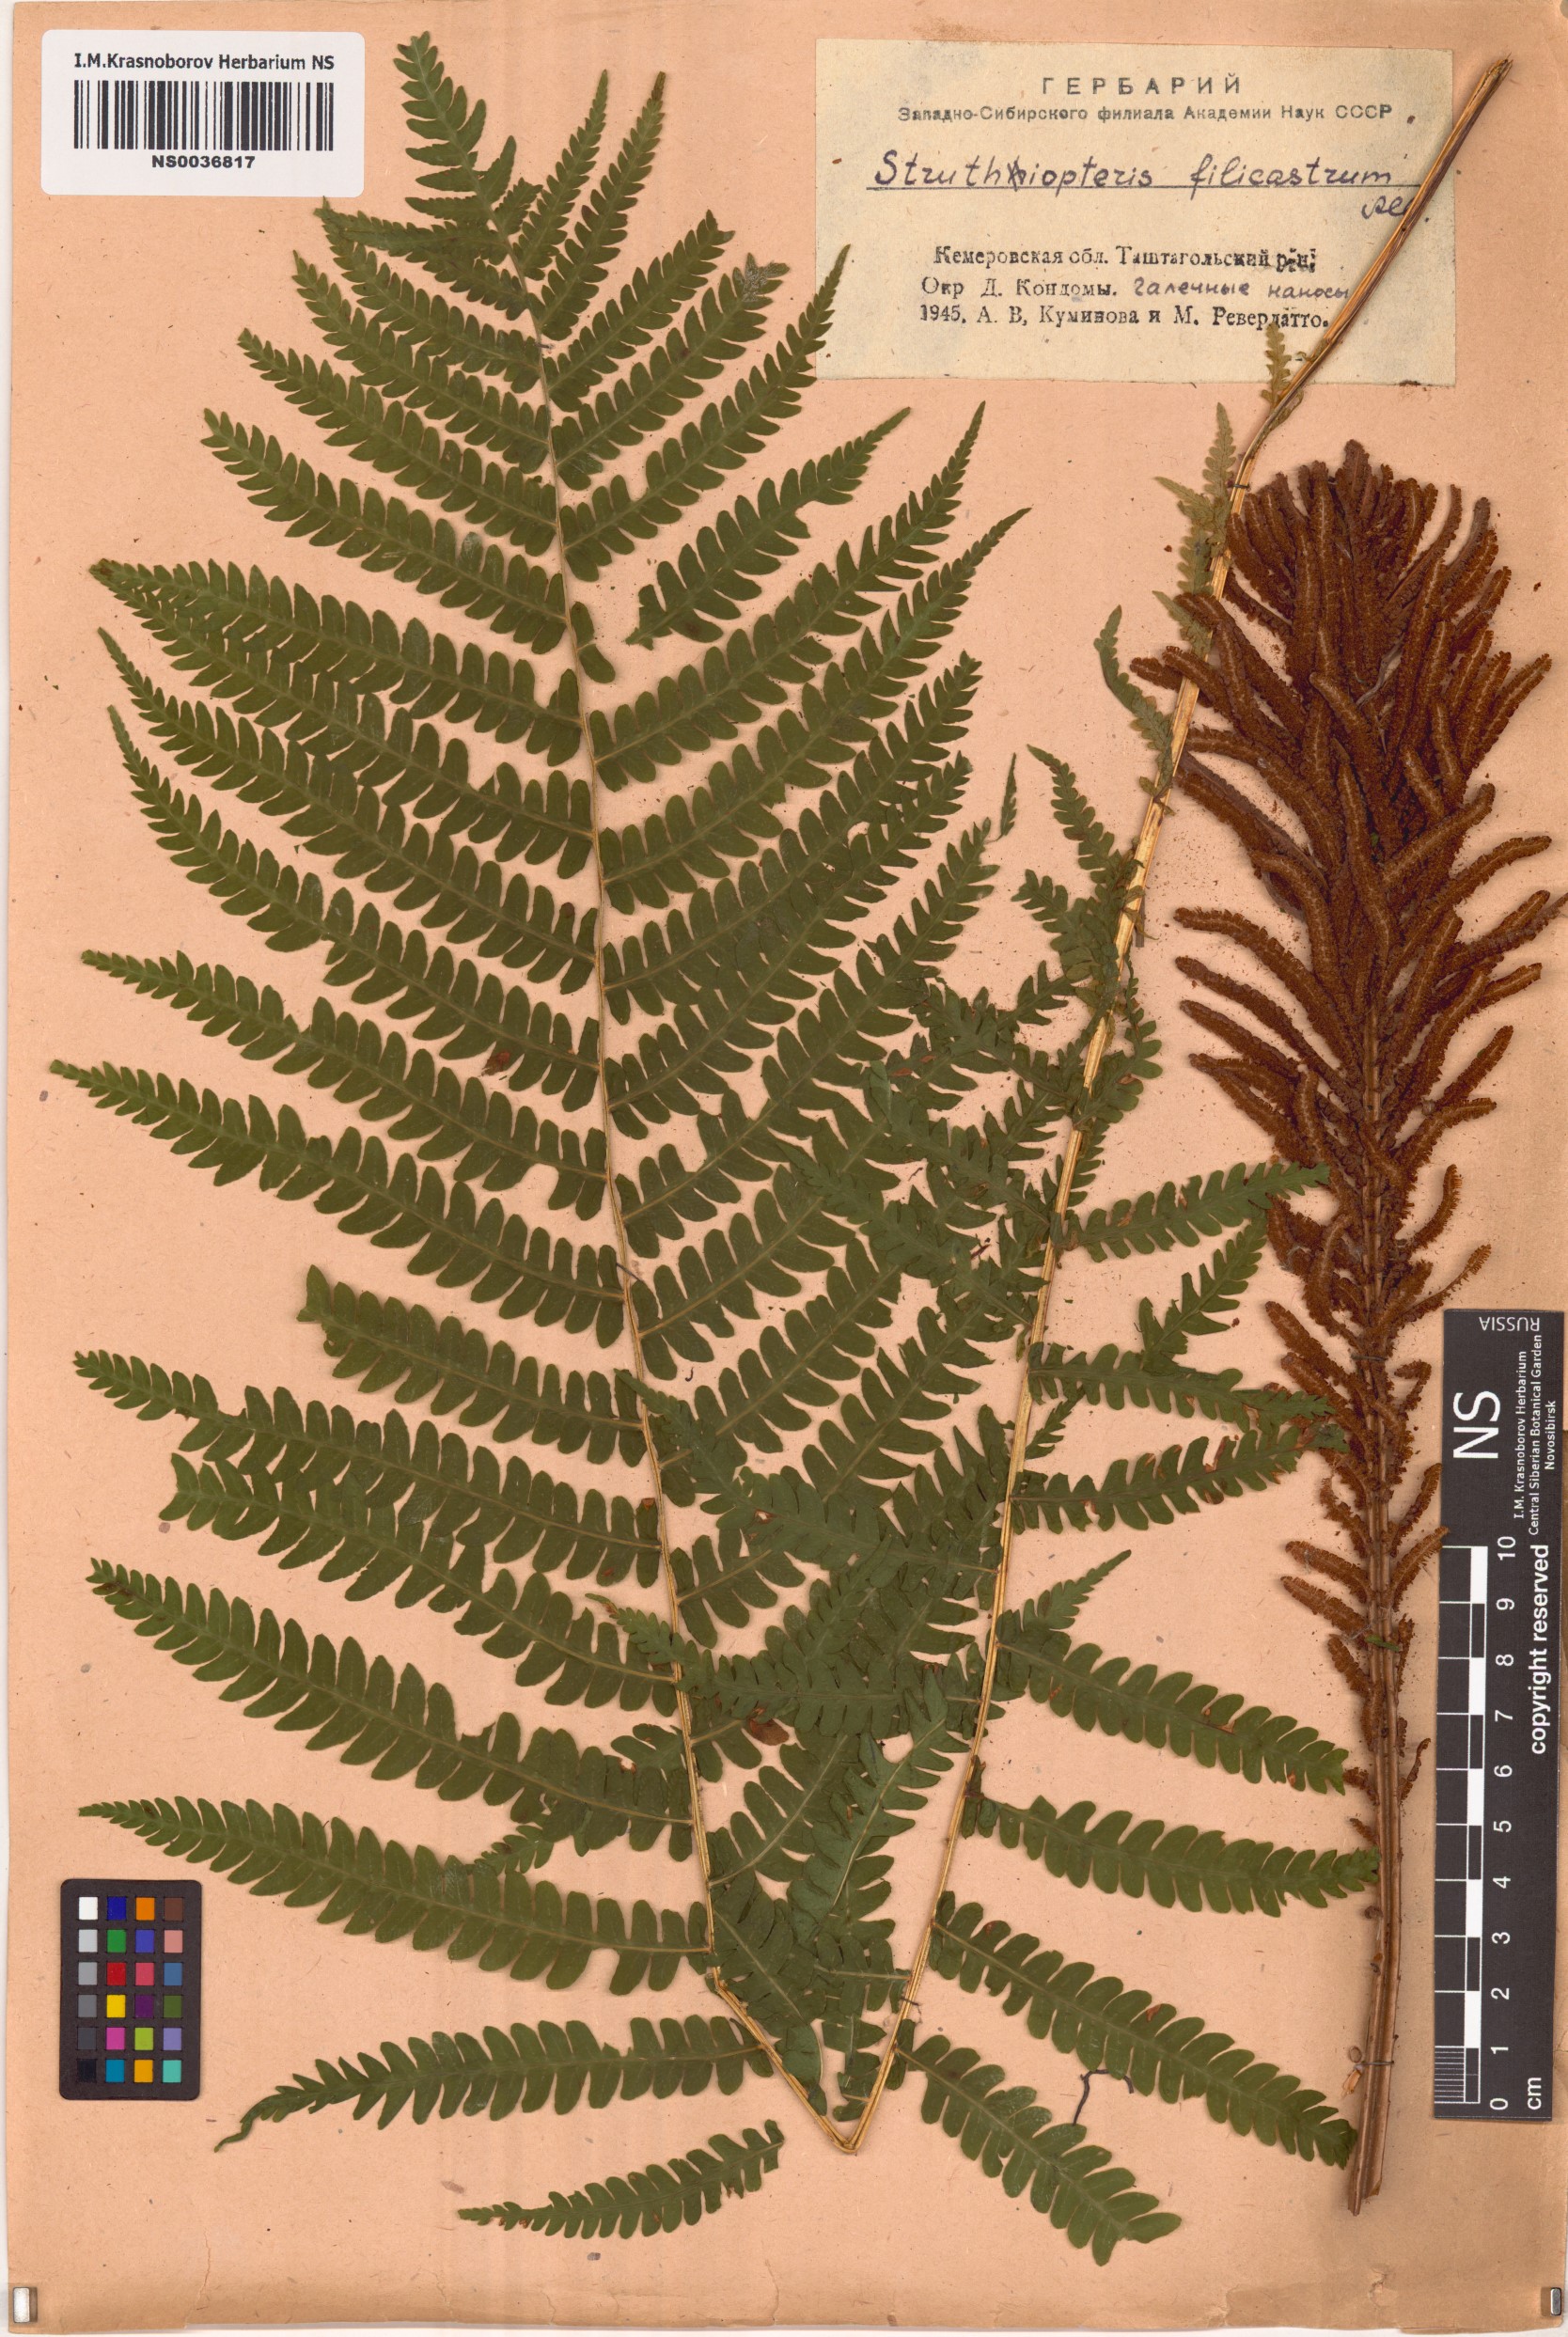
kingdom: Plantae
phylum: Tracheophyta
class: Polypodiopsida
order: Polypodiales
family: Onocleaceae
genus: Matteuccia
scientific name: Matteuccia struthiopteris
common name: Ostrich fern
